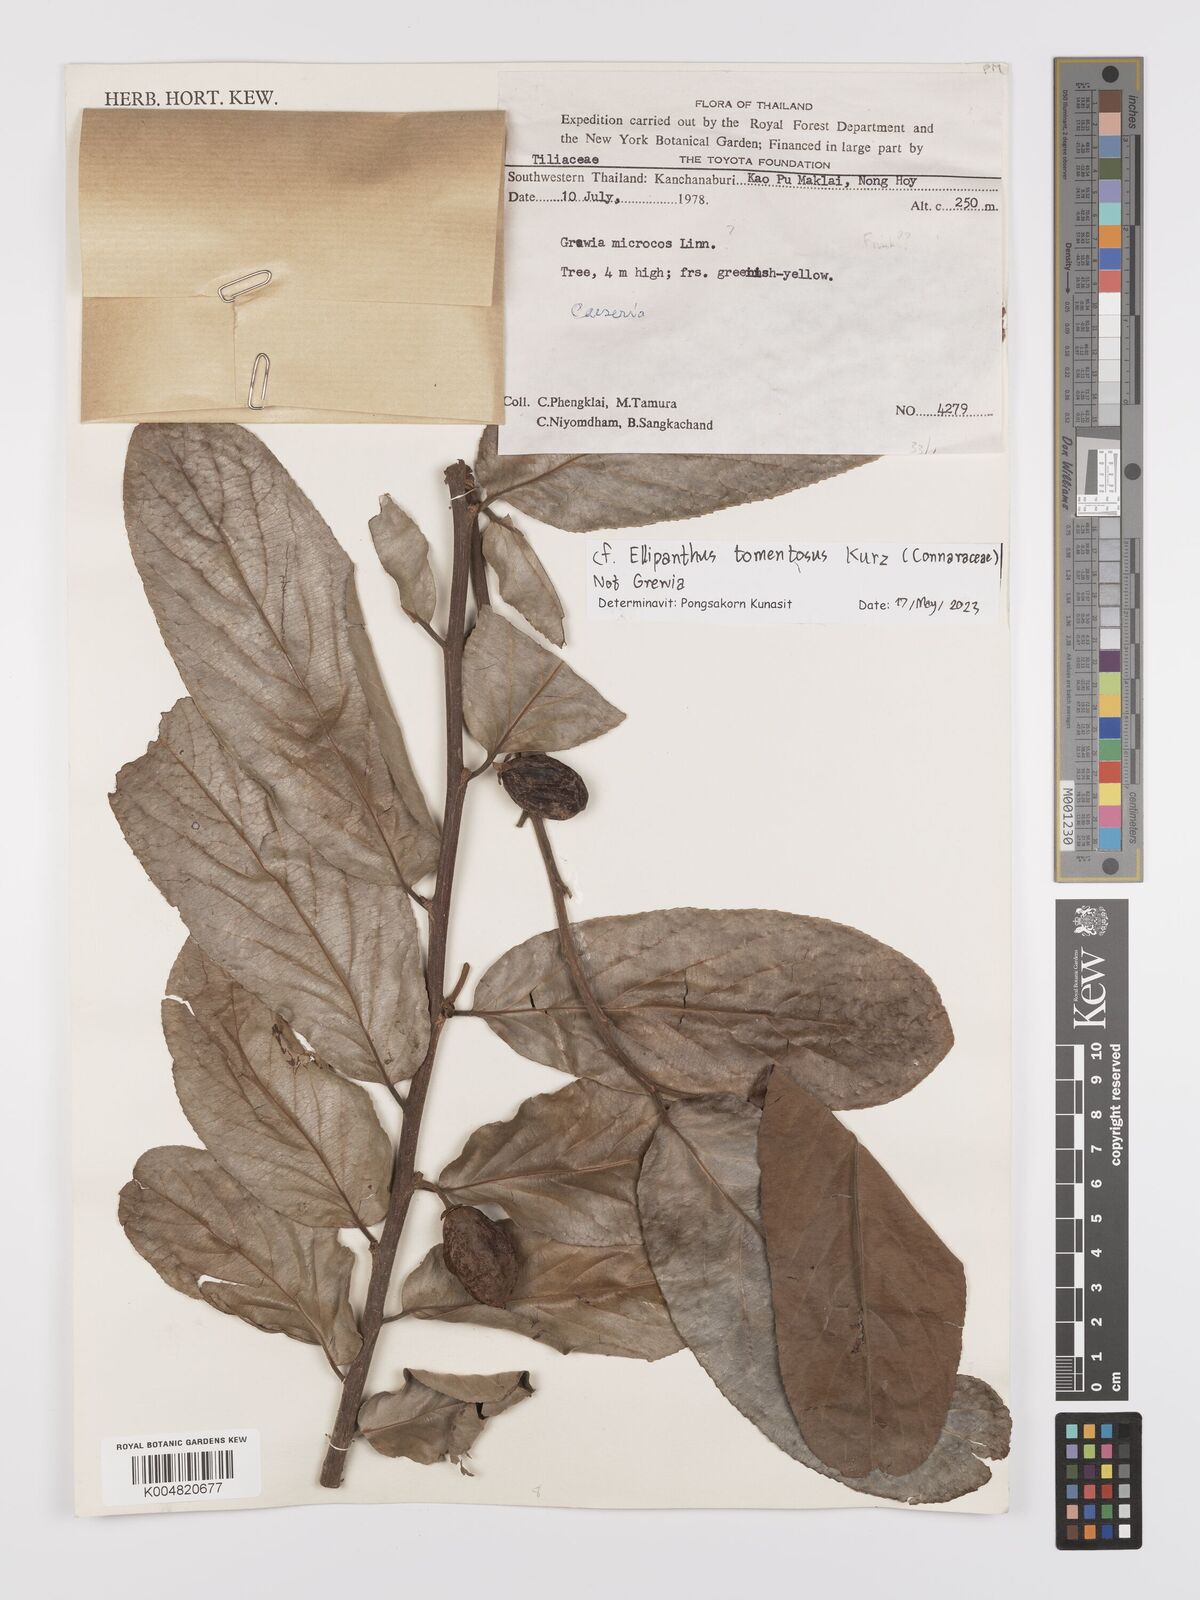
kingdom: Plantae
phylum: Tracheophyta
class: Magnoliopsida
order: Oxalidales
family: Connaraceae
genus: Ellipanthus
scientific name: Ellipanthus tomentosus
